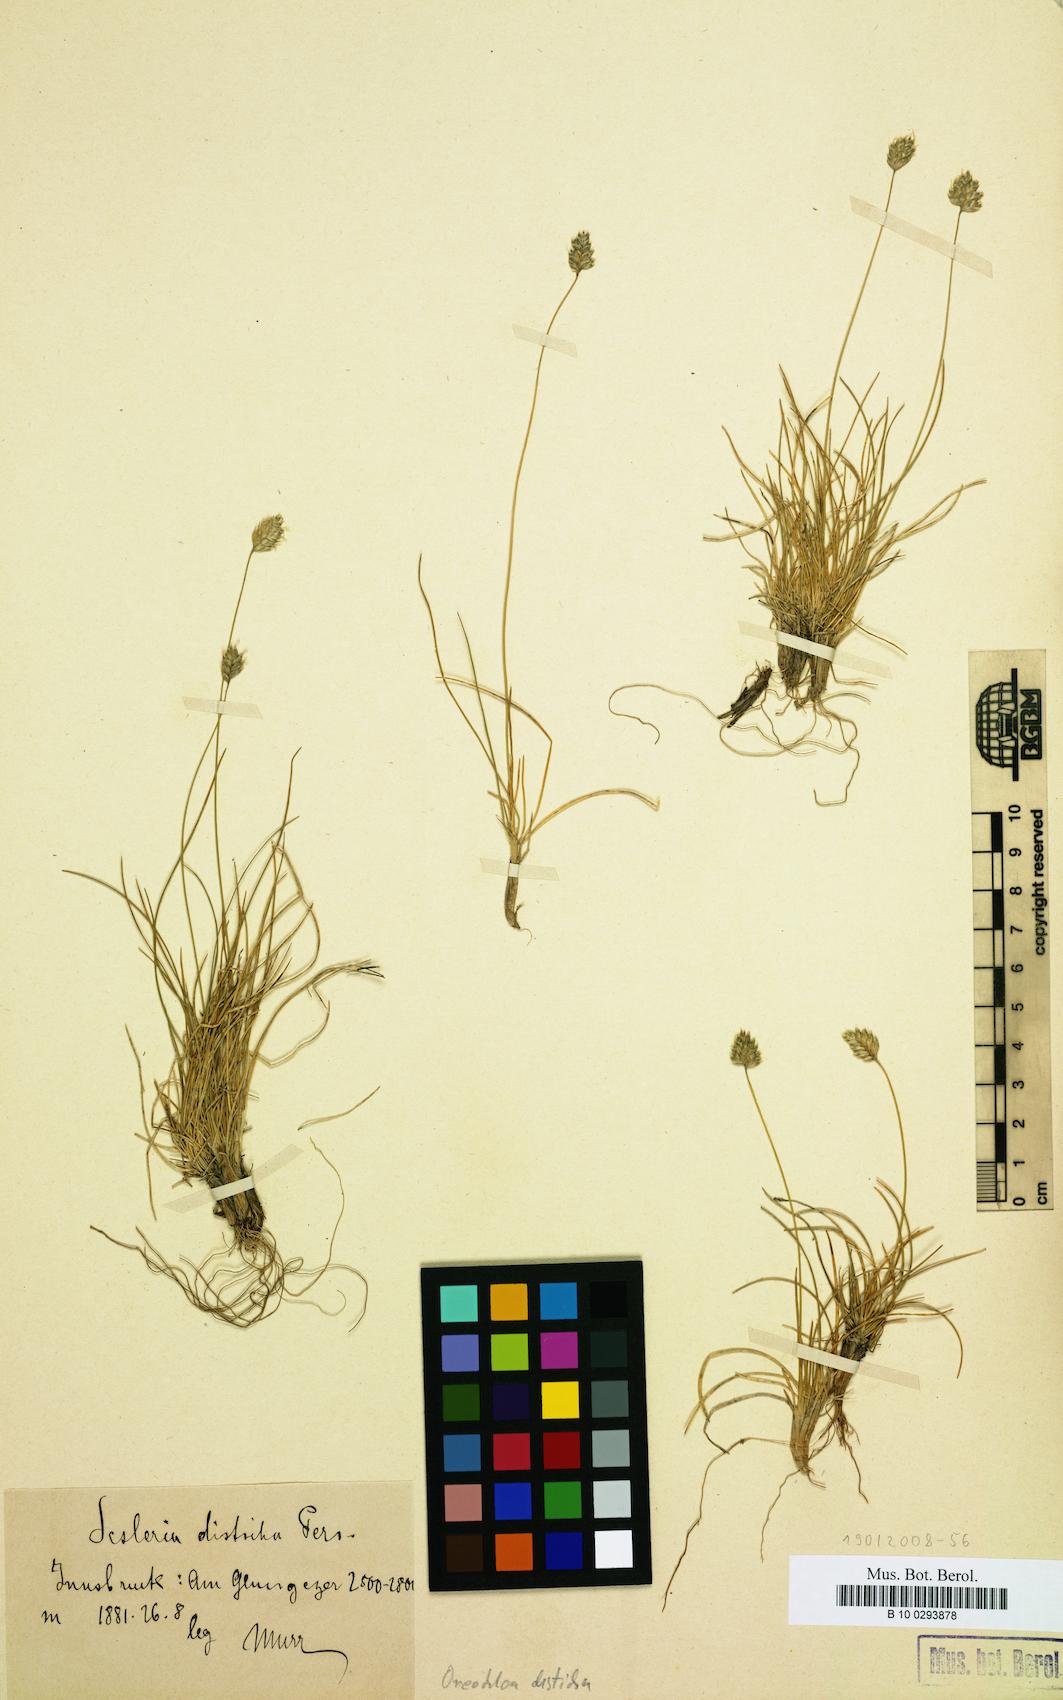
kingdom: Plantae
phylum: Tracheophyta
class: Liliopsida
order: Poales
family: Poaceae
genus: Oreochloa
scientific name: Oreochloa disticha
